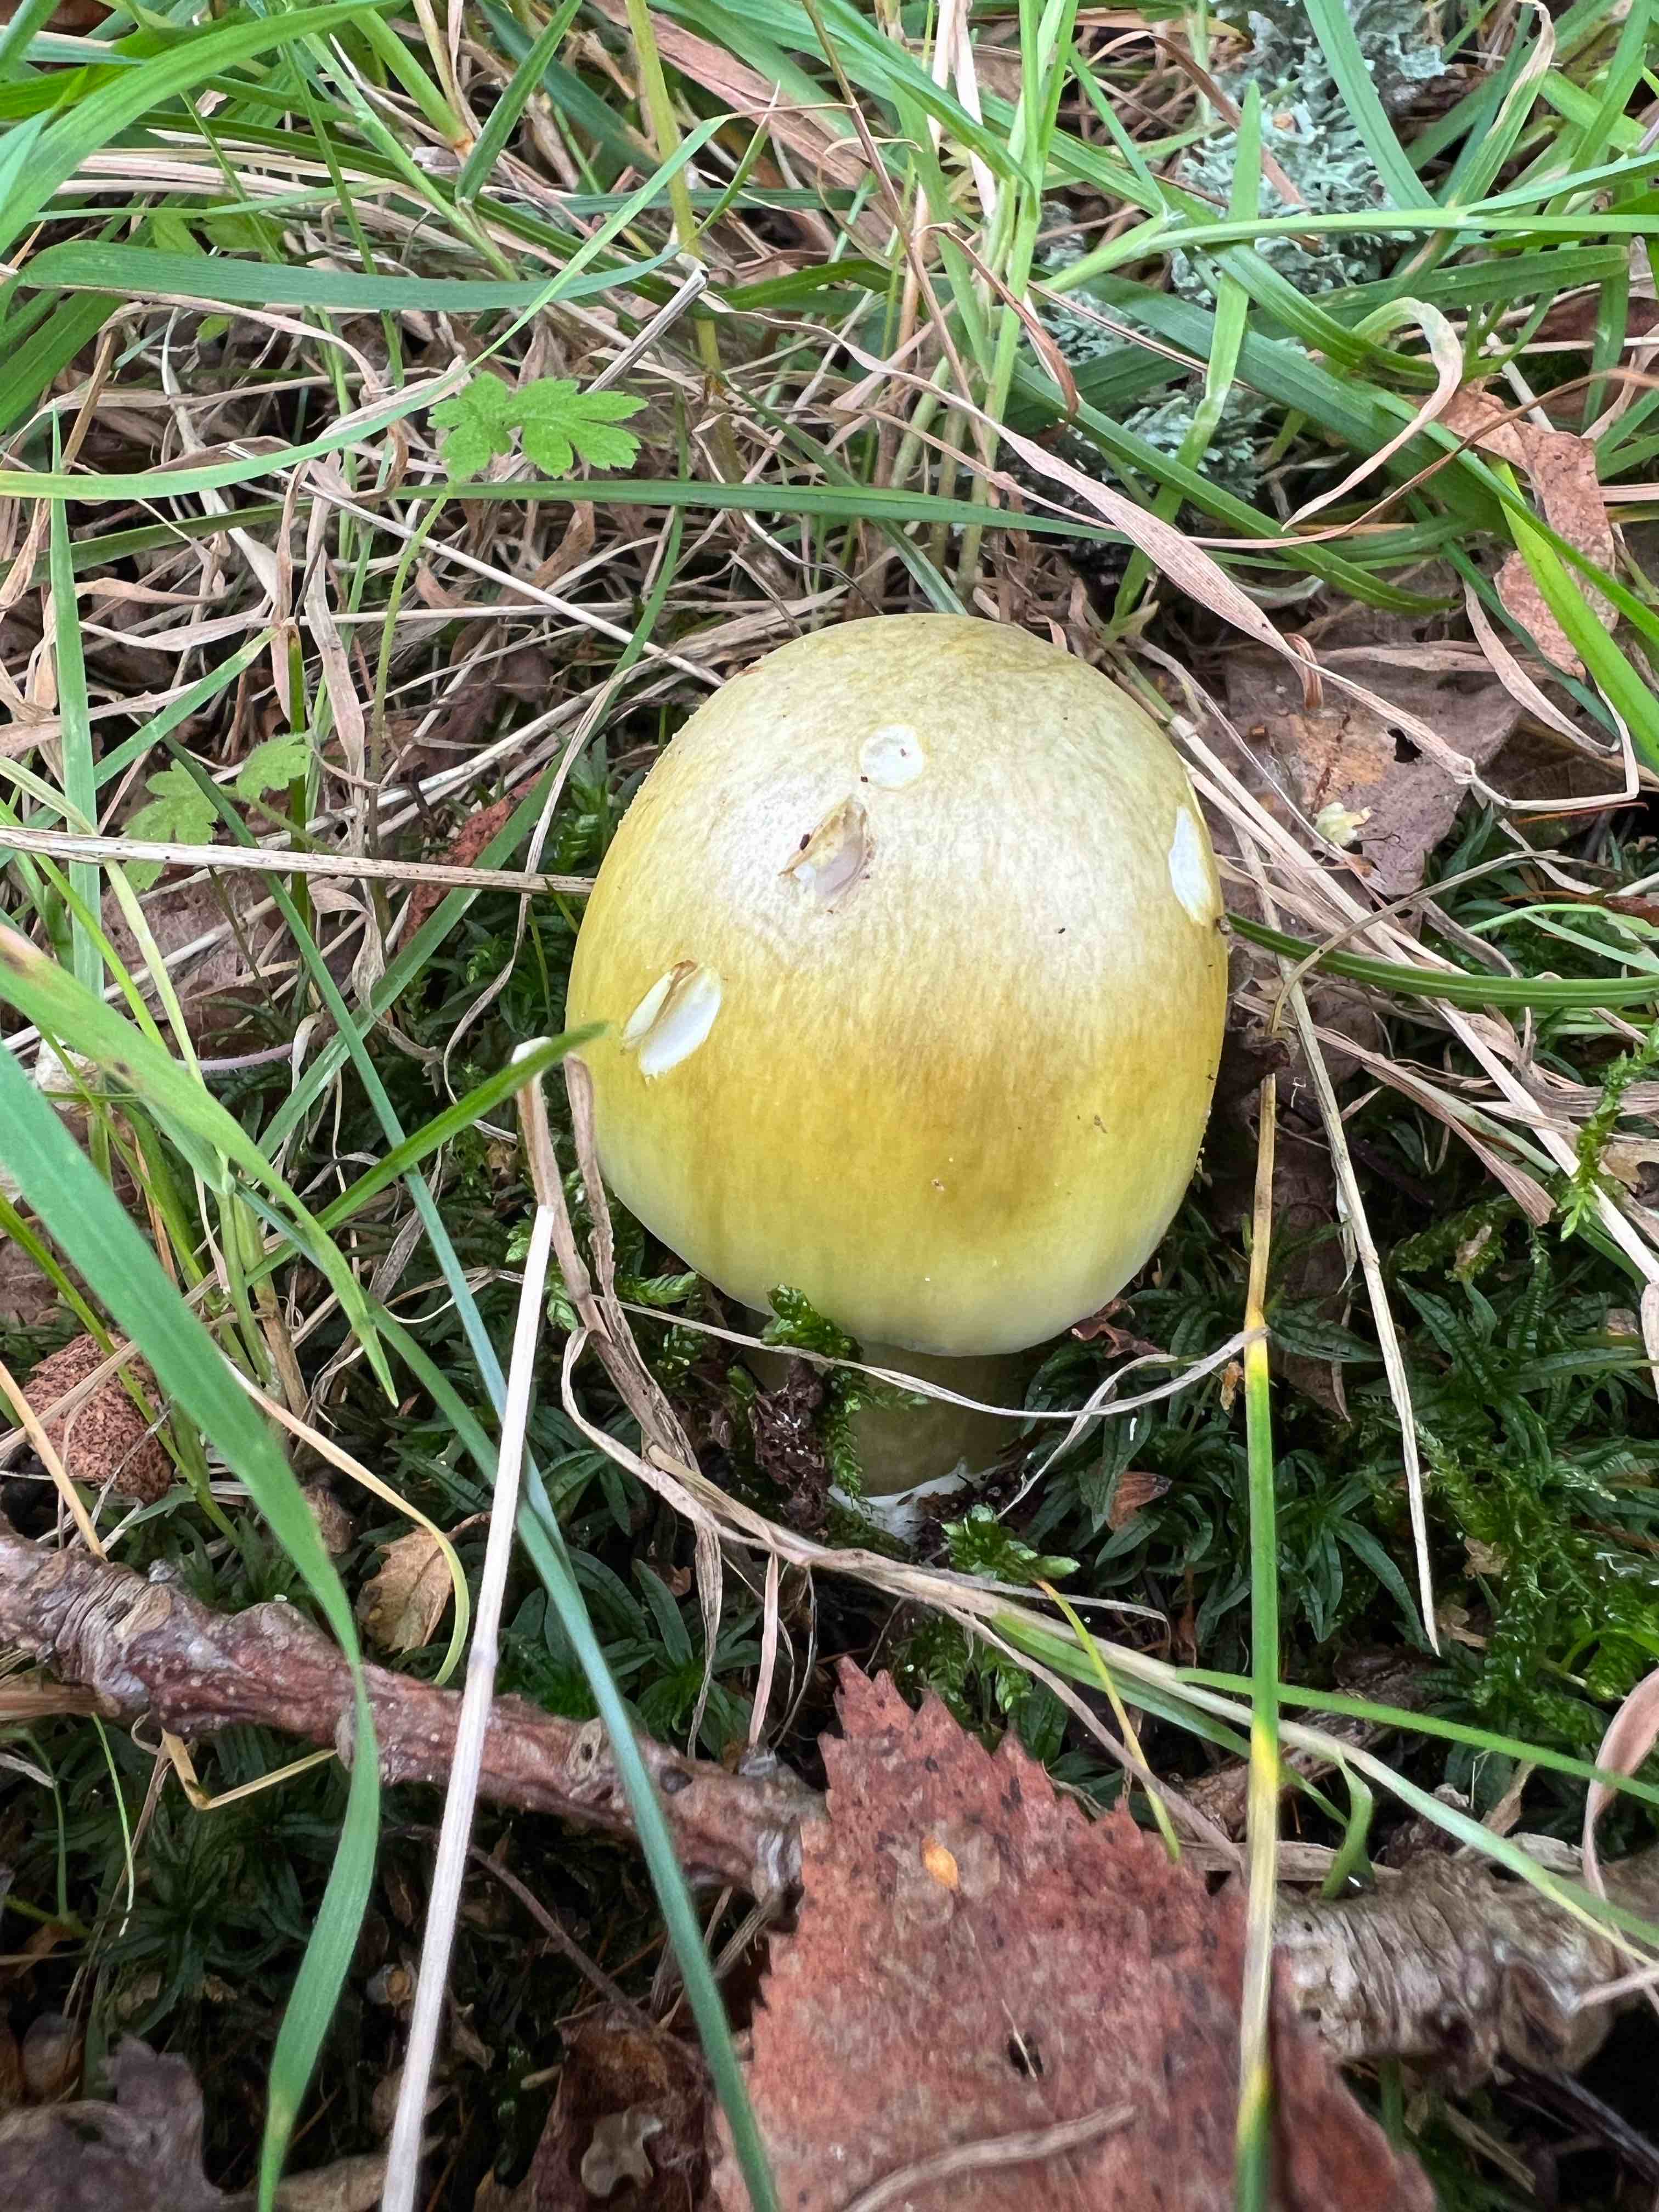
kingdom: Fungi
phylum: Basidiomycota
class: Agaricomycetes
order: Agaricales
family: Amanitaceae
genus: Amanita
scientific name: Amanita phalloides
